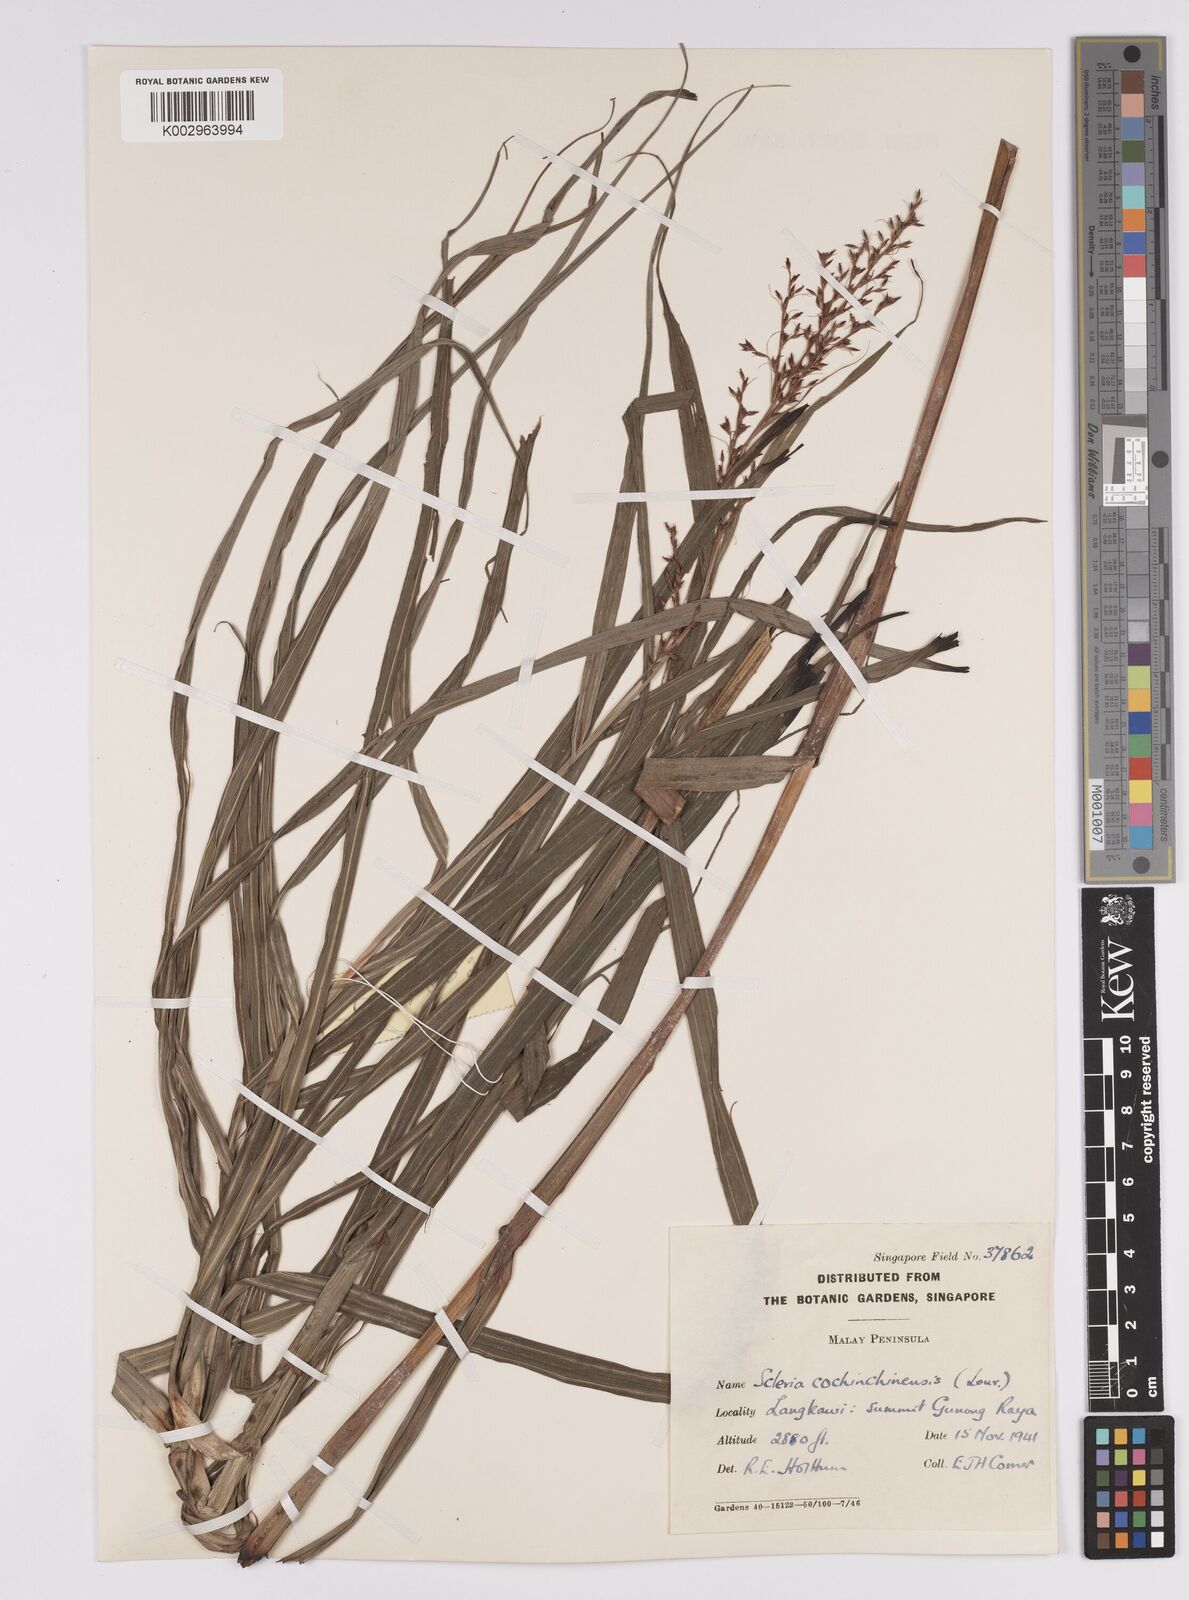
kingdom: Plantae
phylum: Tracheophyta
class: Liliopsida
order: Poales
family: Cyperaceae
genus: Scleria
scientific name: Scleria terrestris
